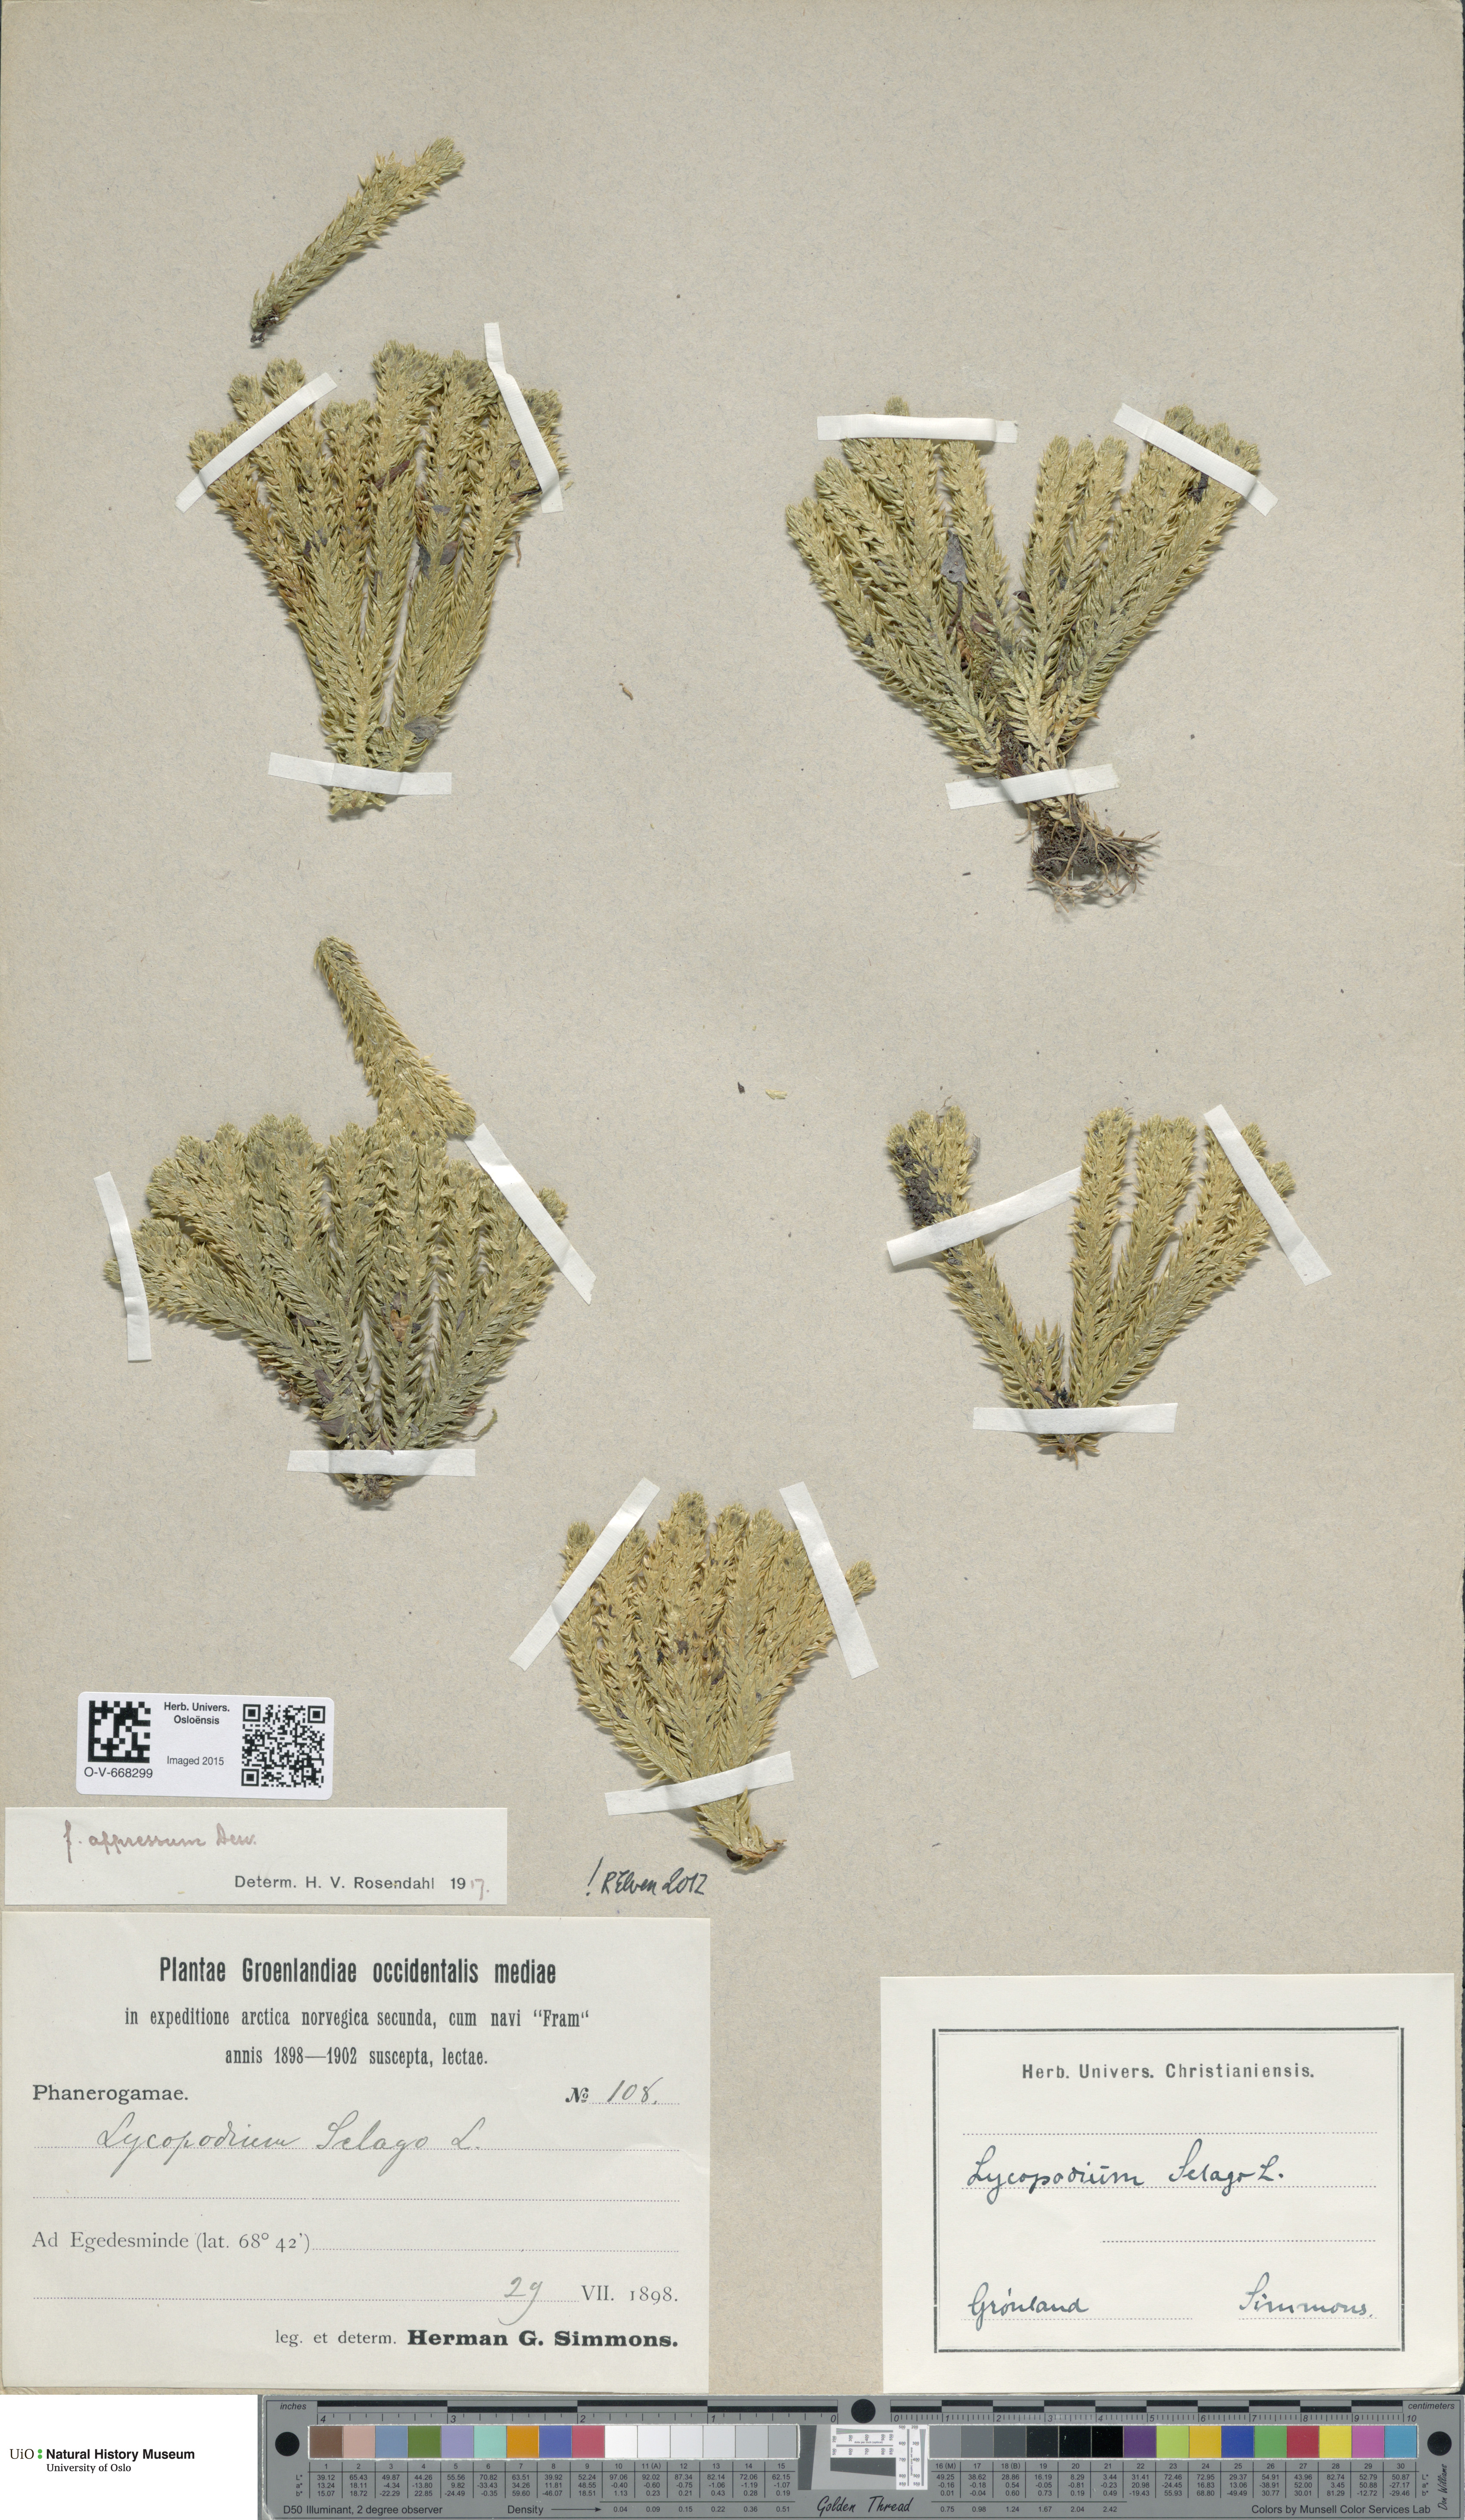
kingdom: Plantae
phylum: Tracheophyta
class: Lycopodiopsida
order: Lycopodiales
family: Lycopodiaceae
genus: Huperzia
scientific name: Huperzia selago
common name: Northern firmoss
